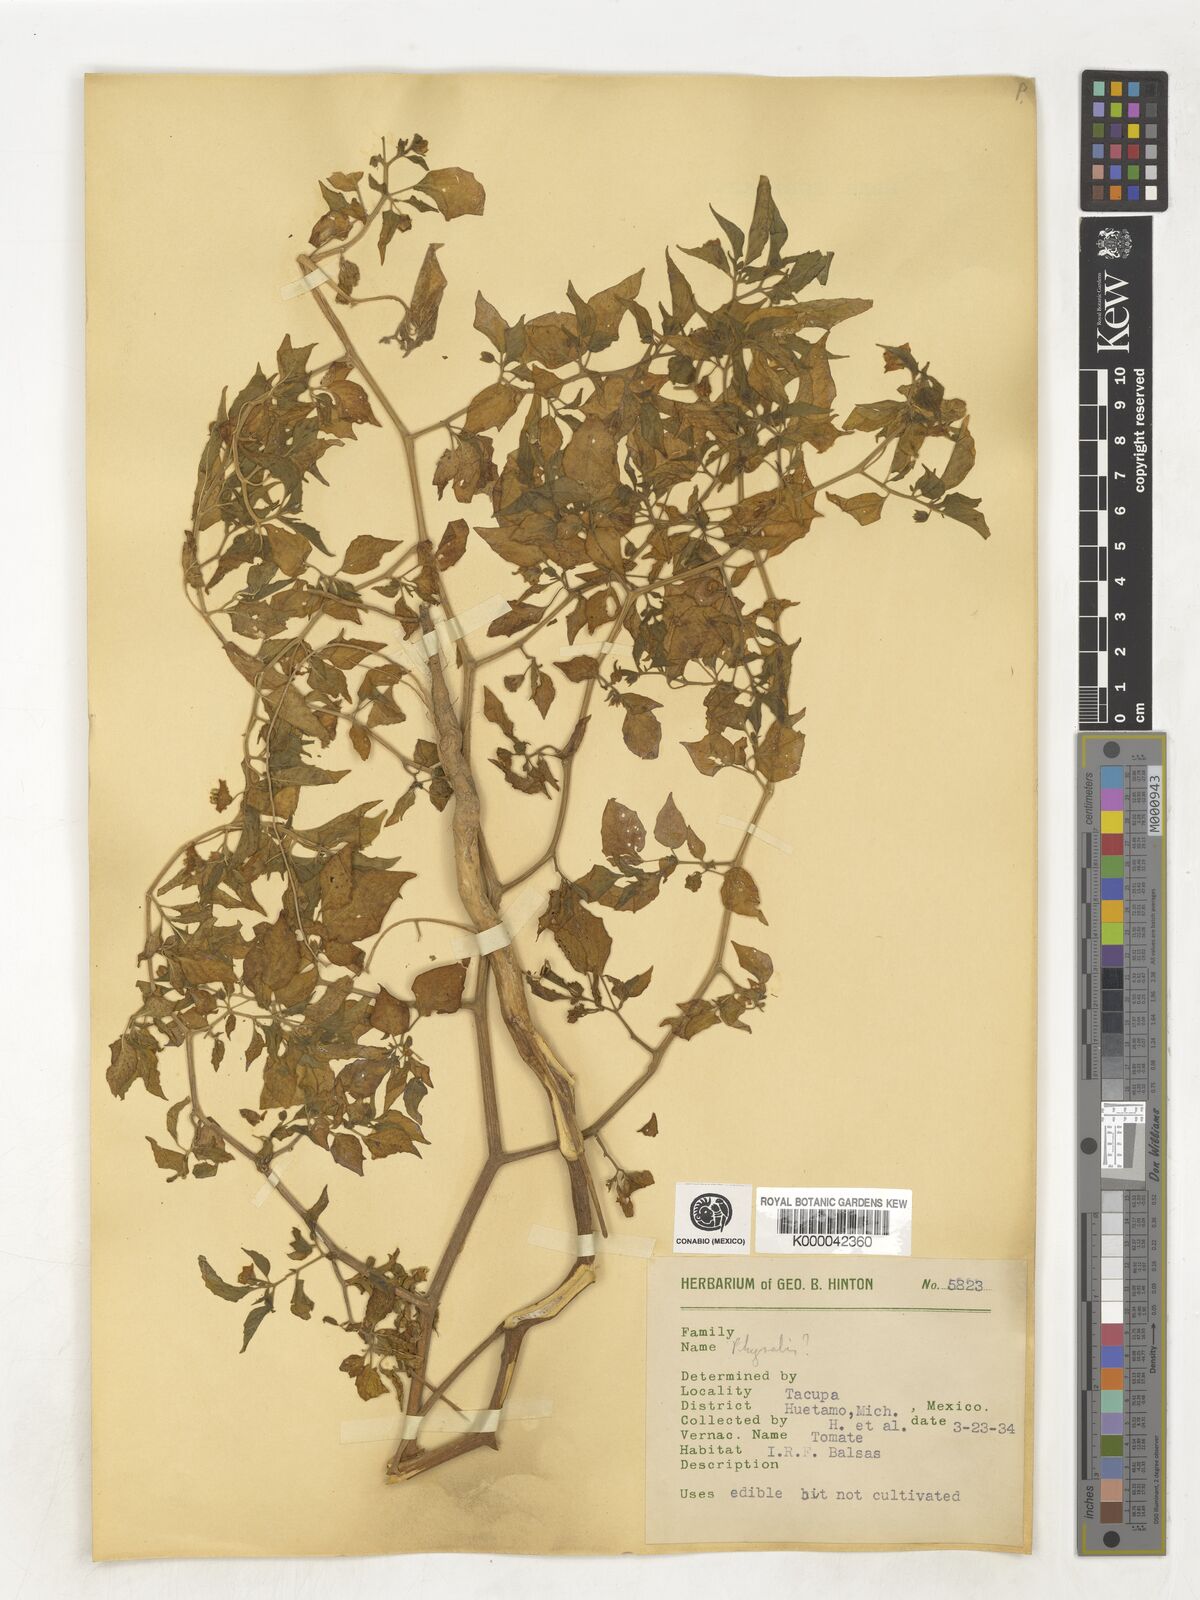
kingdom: Plantae
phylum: Tracheophyta
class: Magnoliopsida
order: Solanales
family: Solanaceae
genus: Physalis
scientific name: Physalis
